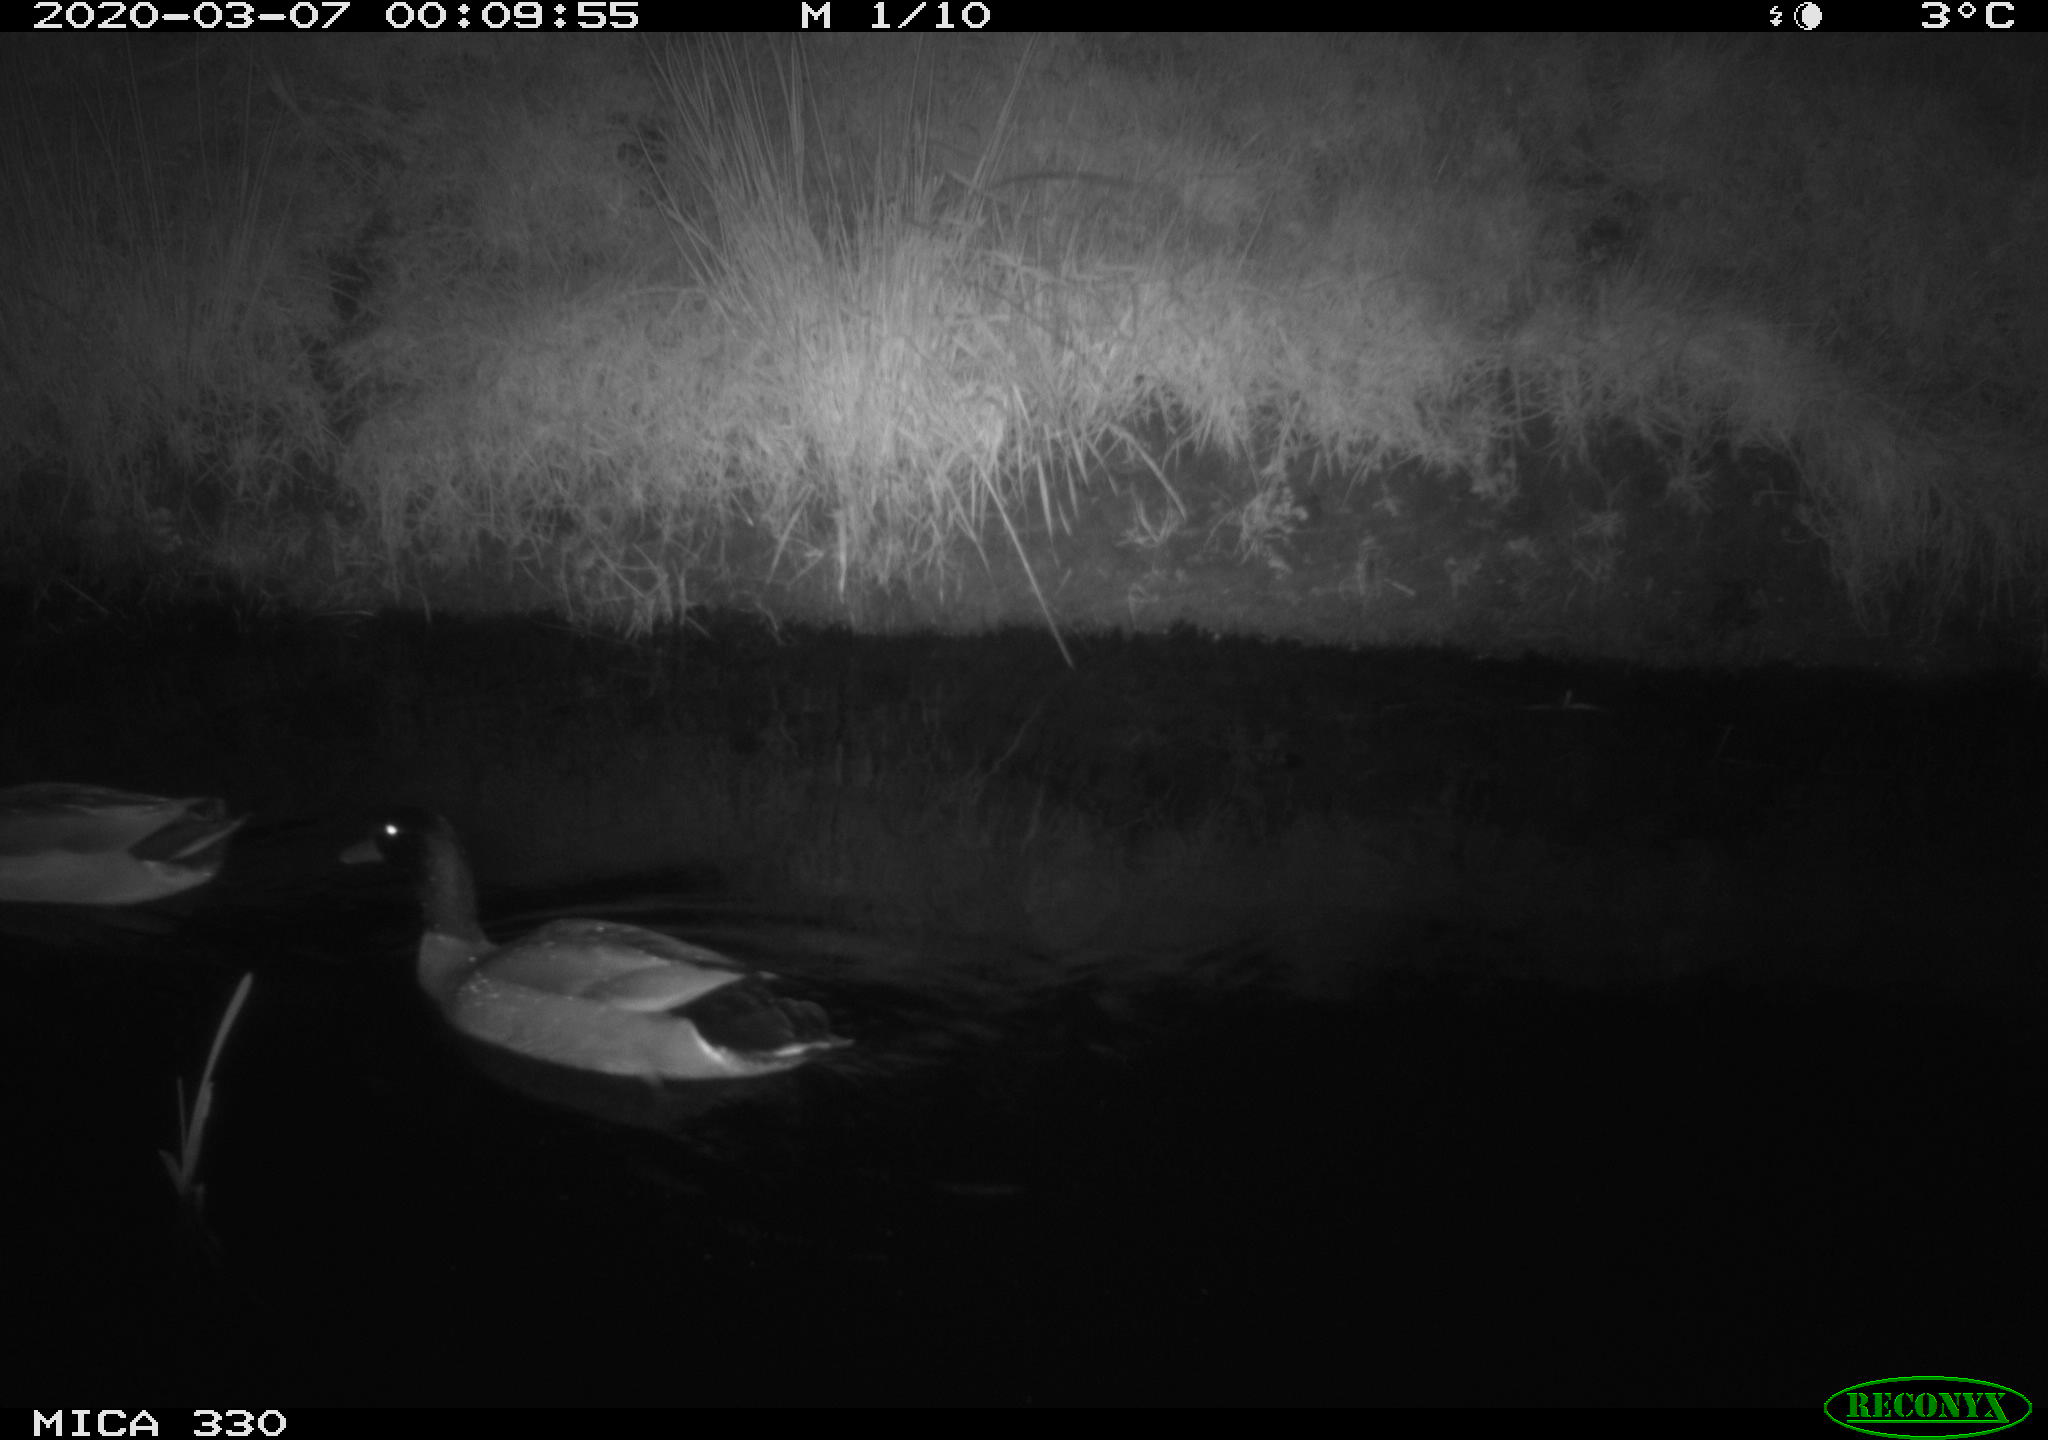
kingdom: Animalia
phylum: Chordata
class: Aves
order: Anseriformes
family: Anatidae
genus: Anas
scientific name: Anas platyrhynchos
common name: Mallard
